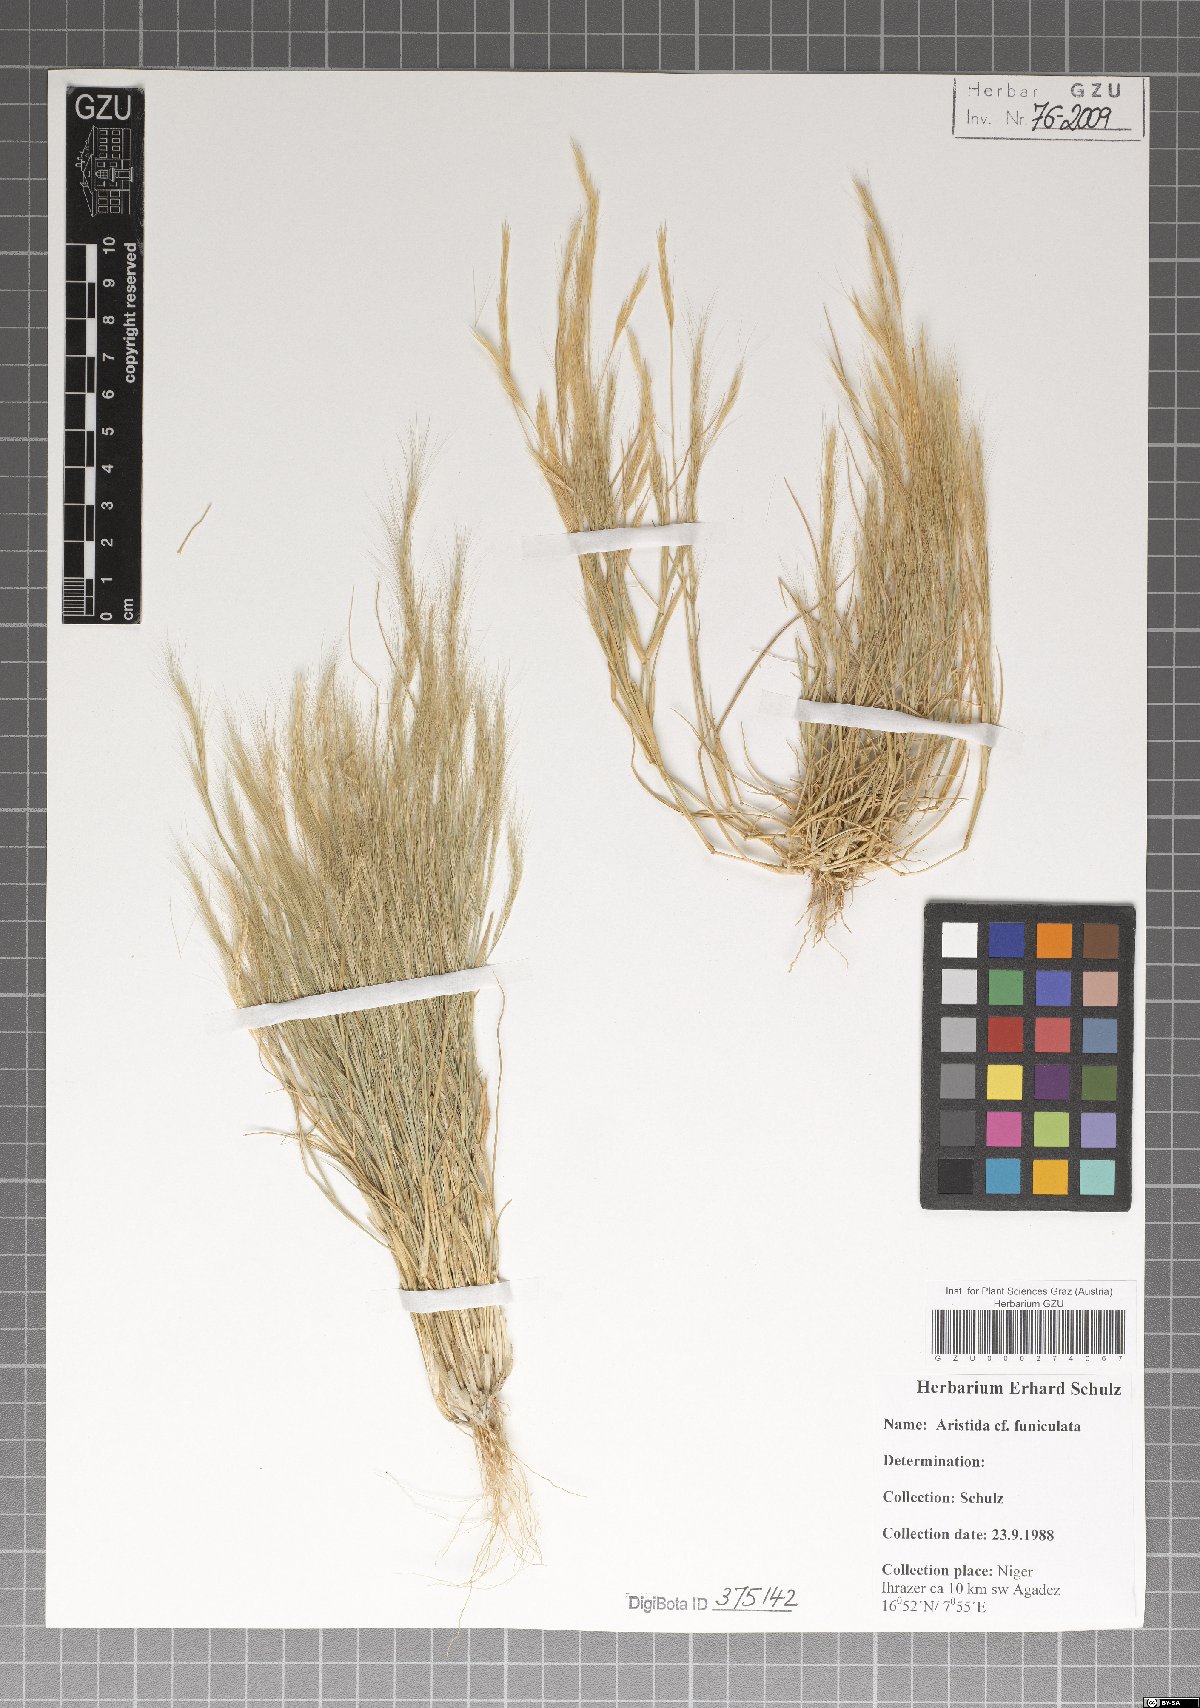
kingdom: Plantae
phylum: Tracheophyta
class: Liliopsida
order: Poales
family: Poaceae
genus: Aristida
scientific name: Aristida adscensionis
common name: Sixweeks threeawn
